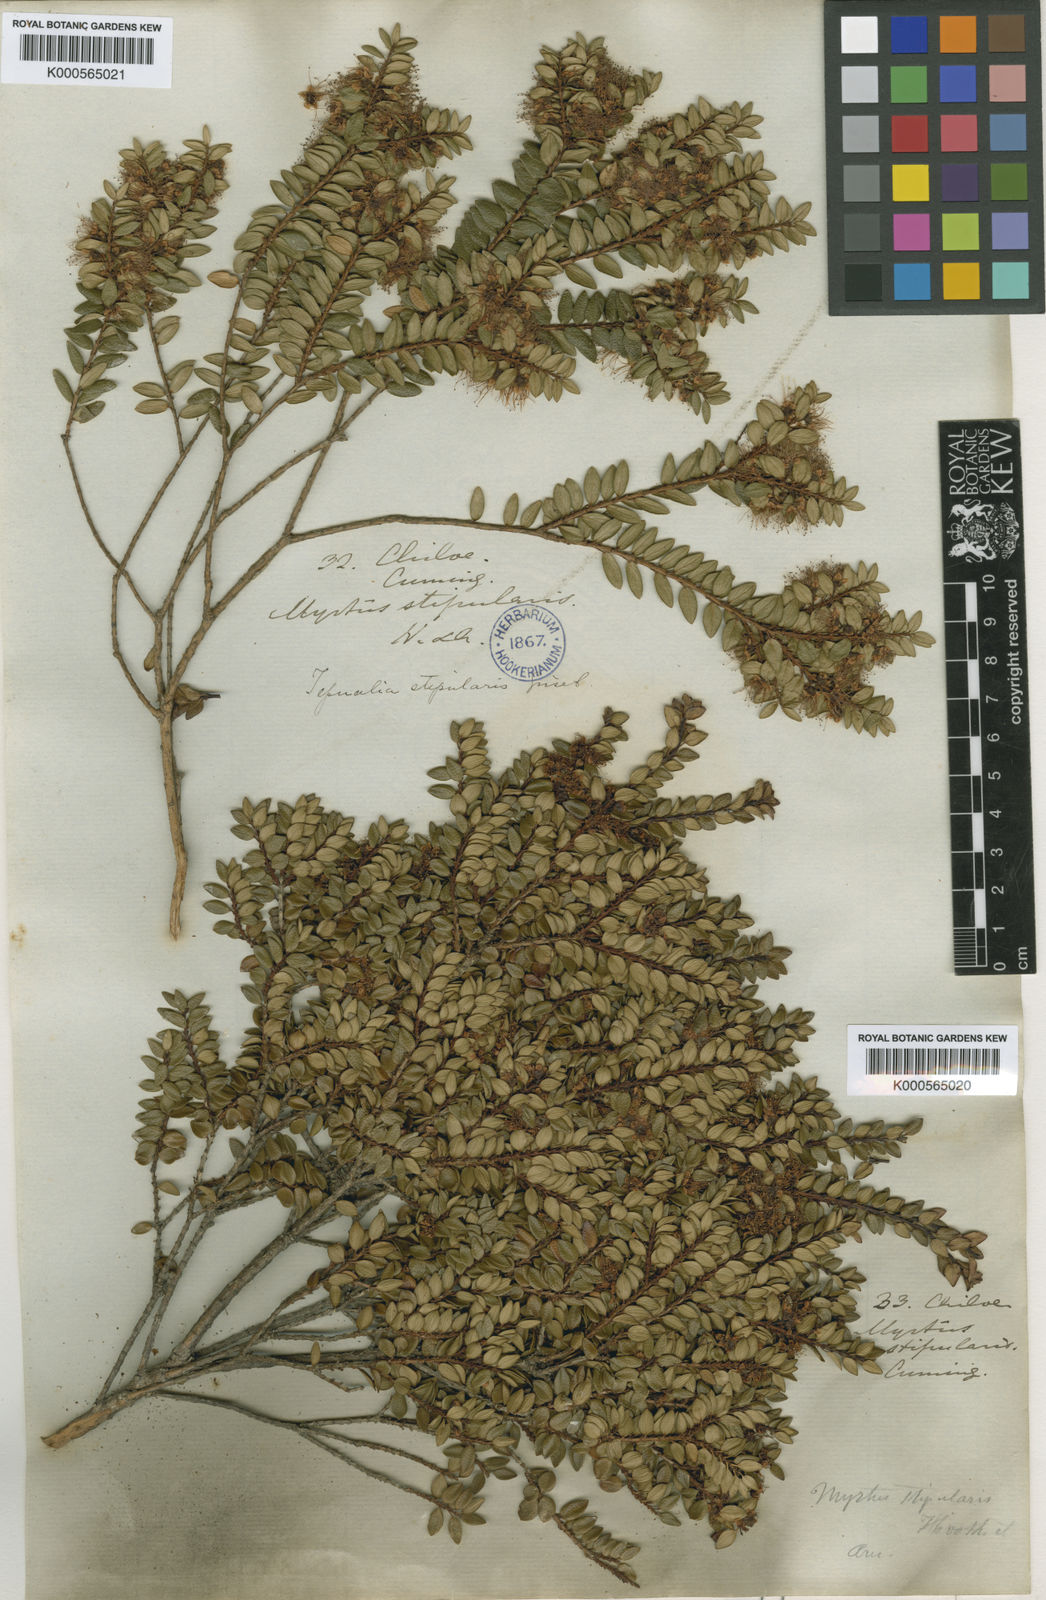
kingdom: Plantae
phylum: Tracheophyta
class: Magnoliopsida
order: Myrtales
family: Myrtaceae
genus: Tepualia
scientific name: Tepualia stipularis
